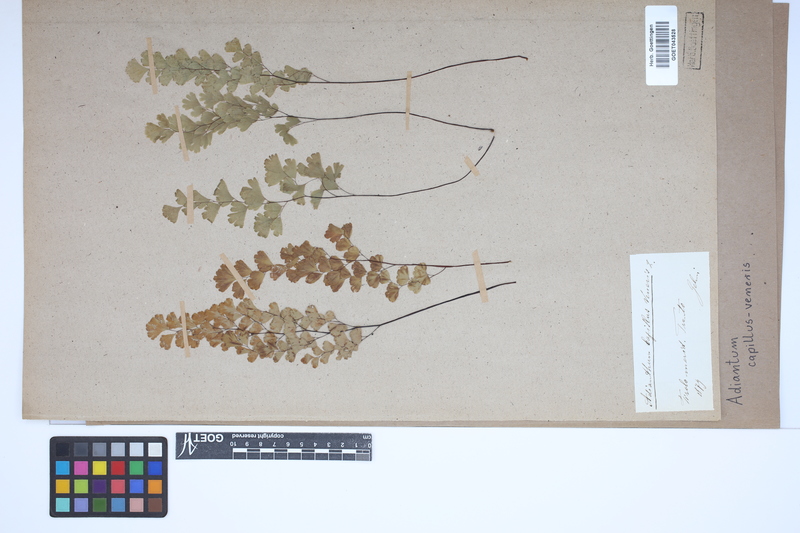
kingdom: Plantae
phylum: Tracheophyta
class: Polypodiopsida
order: Polypodiales
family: Pteridaceae
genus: Adiantum
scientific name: Adiantum capillus-veneris
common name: Maidenhair fern
